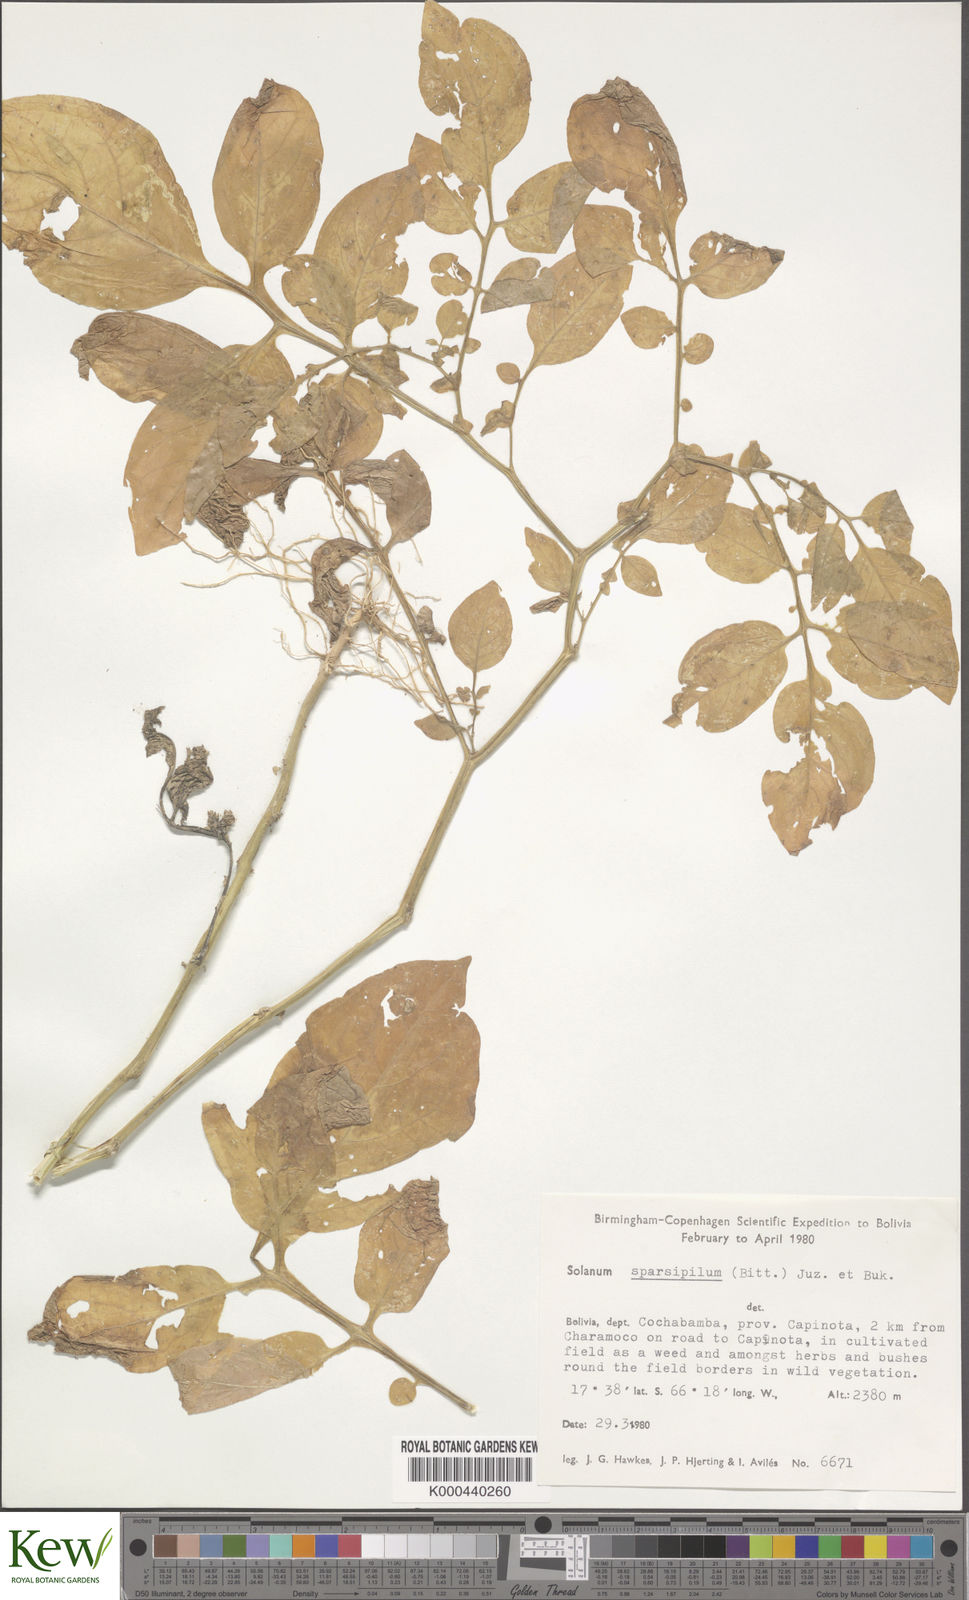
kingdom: Plantae
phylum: Tracheophyta
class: Magnoliopsida
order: Solanales
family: Solanaceae
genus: Solanum
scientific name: Solanum brevicaule
